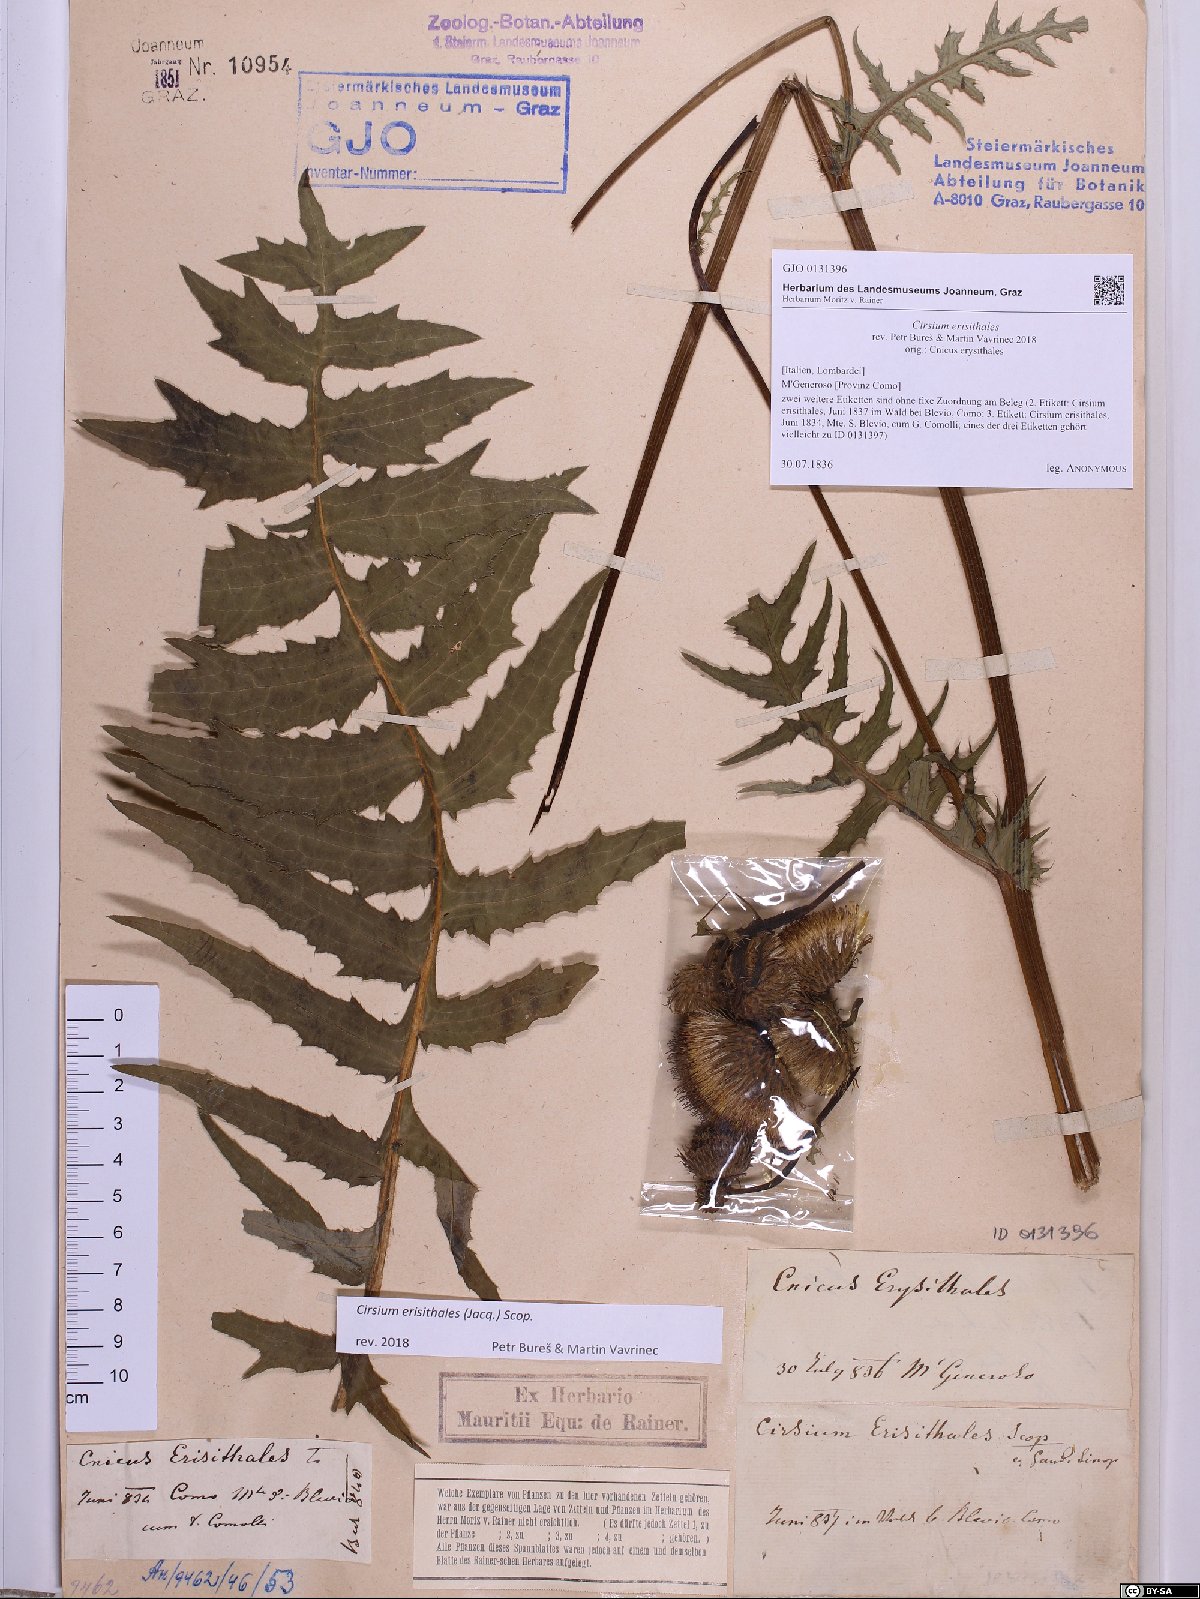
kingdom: Plantae
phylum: Tracheophyta
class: Magnoliopsida
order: Asterales
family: Asteraceae
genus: Cirsium
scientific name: Cirsium erisithales
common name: Yellow thistle
